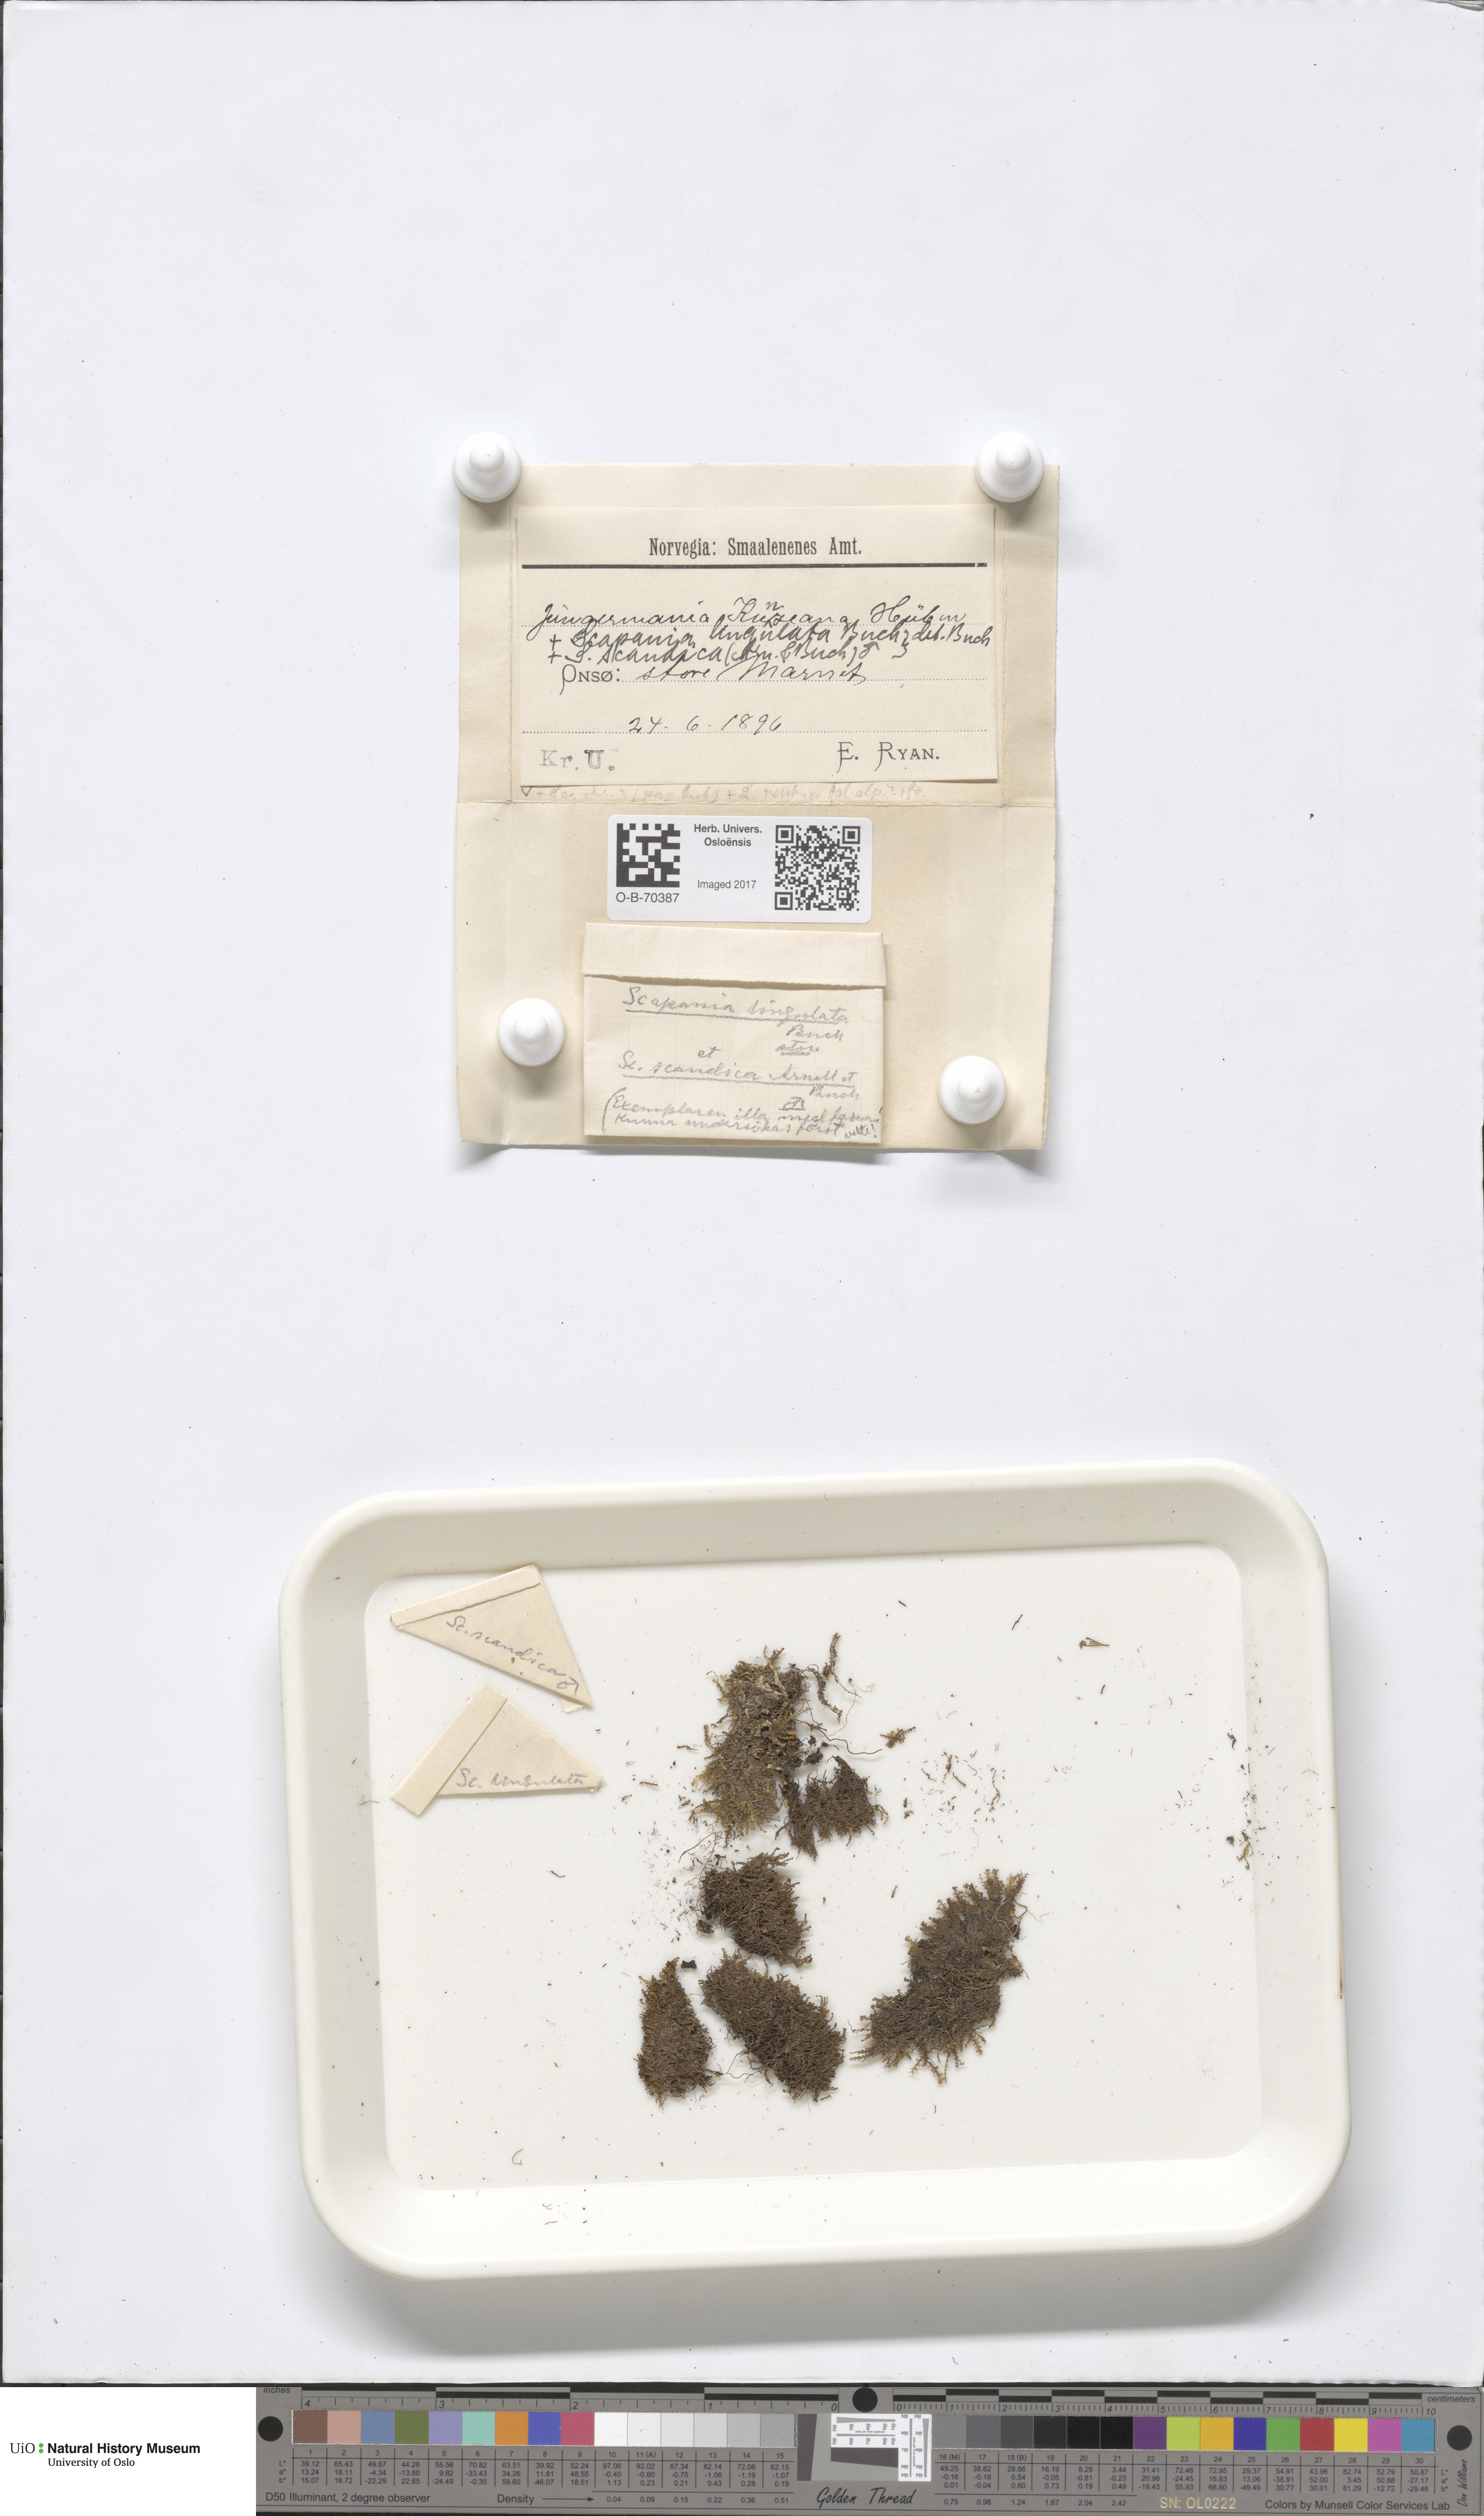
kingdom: Plantae
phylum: Marchantiophyta
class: Jungermanniopsida
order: Jungermanniales
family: Anastrophyllaceae
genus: Schljakovia
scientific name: Schljakovia kunzeana
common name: Kunze's pawwort
